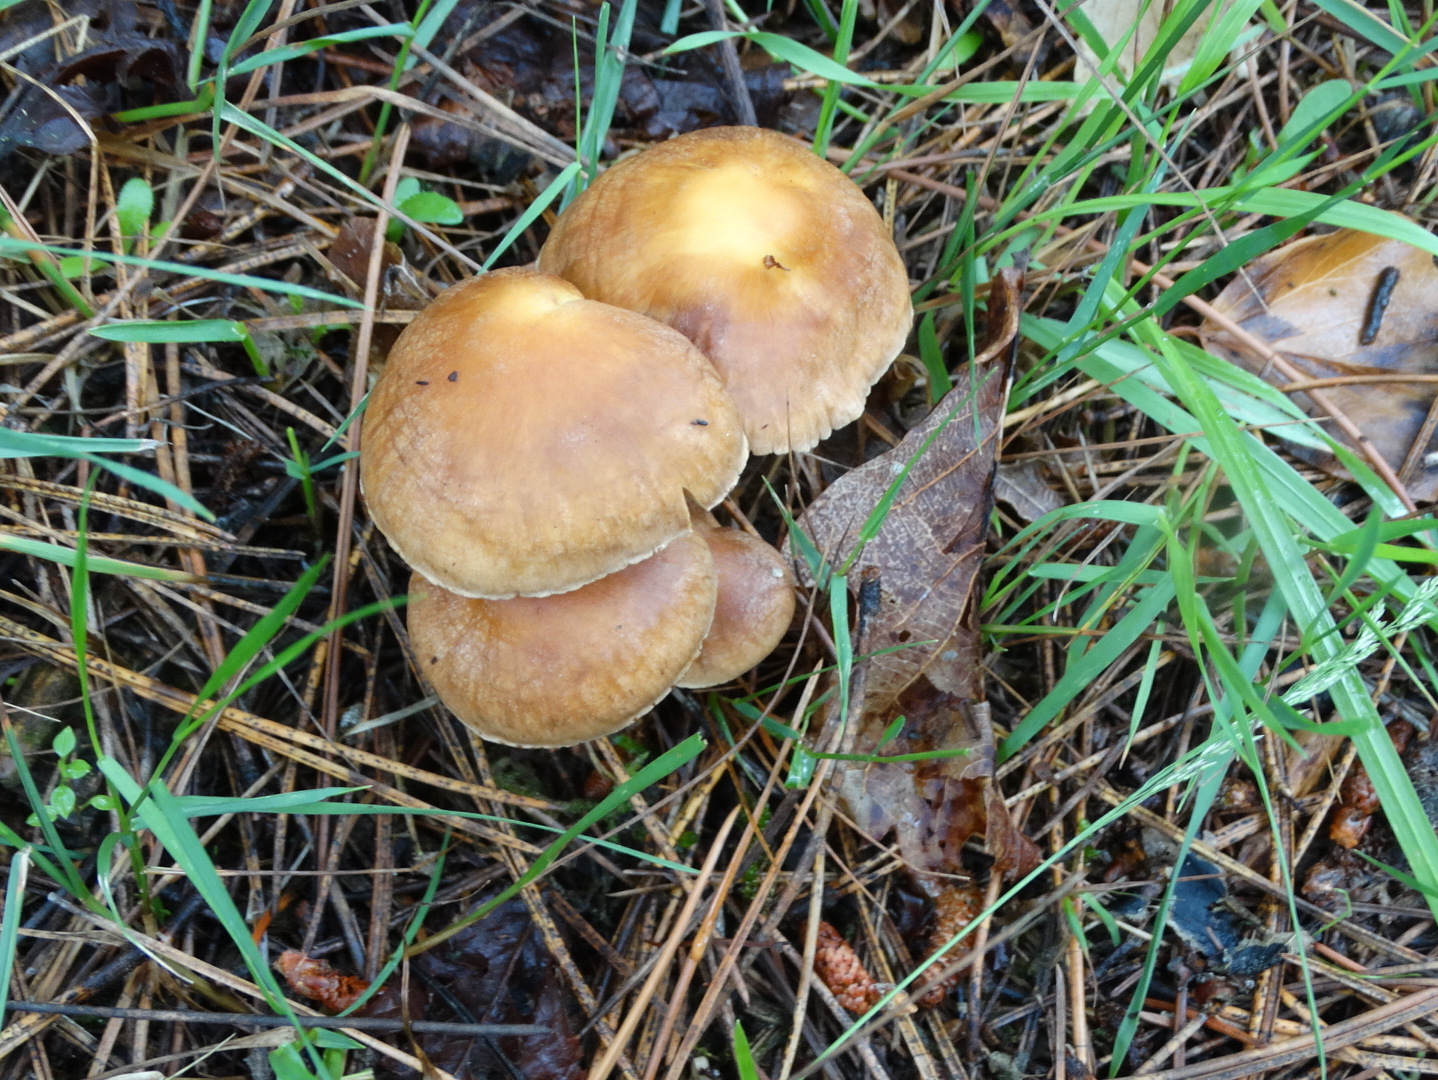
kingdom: Fungi
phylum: Basidiomycota
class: Agaricomycetes
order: Agaricales
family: Omphalotaceae
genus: Collybiopsis
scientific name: Collybiopsis peronata
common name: bestøvlet fladhat
